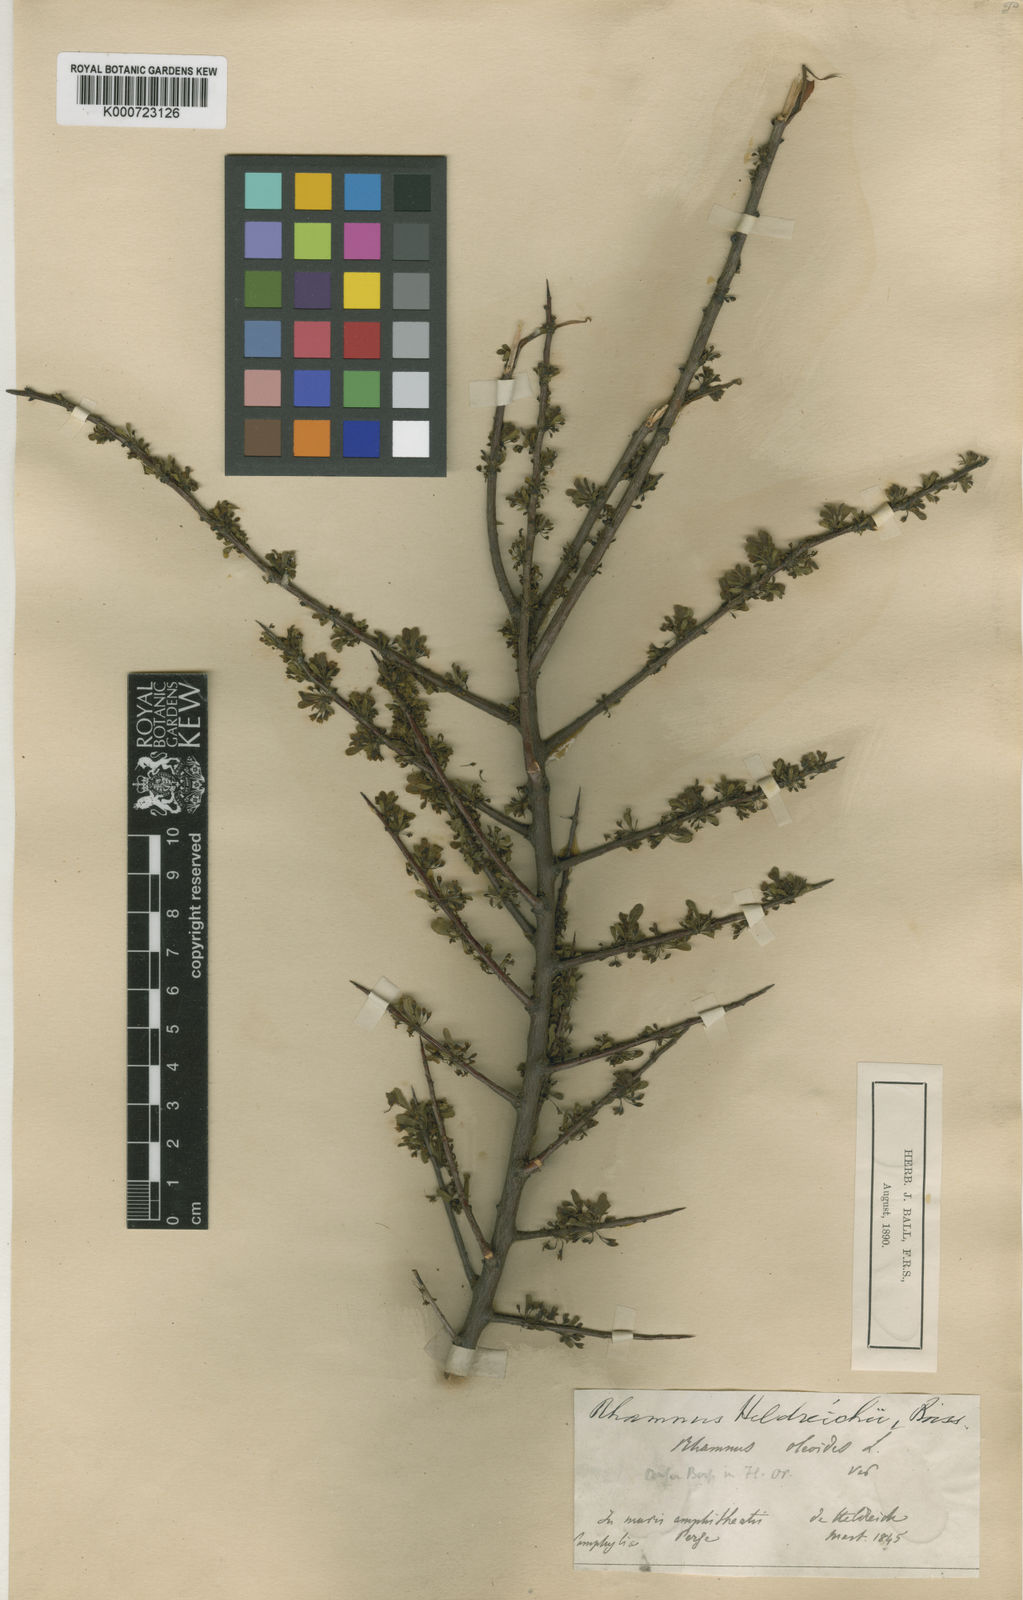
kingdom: Plantae
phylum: Tracheophyta
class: Magnoliopsida
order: Rosales
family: Rhamnaceae
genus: Rhamnus
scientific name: Rhamnus lycioides
